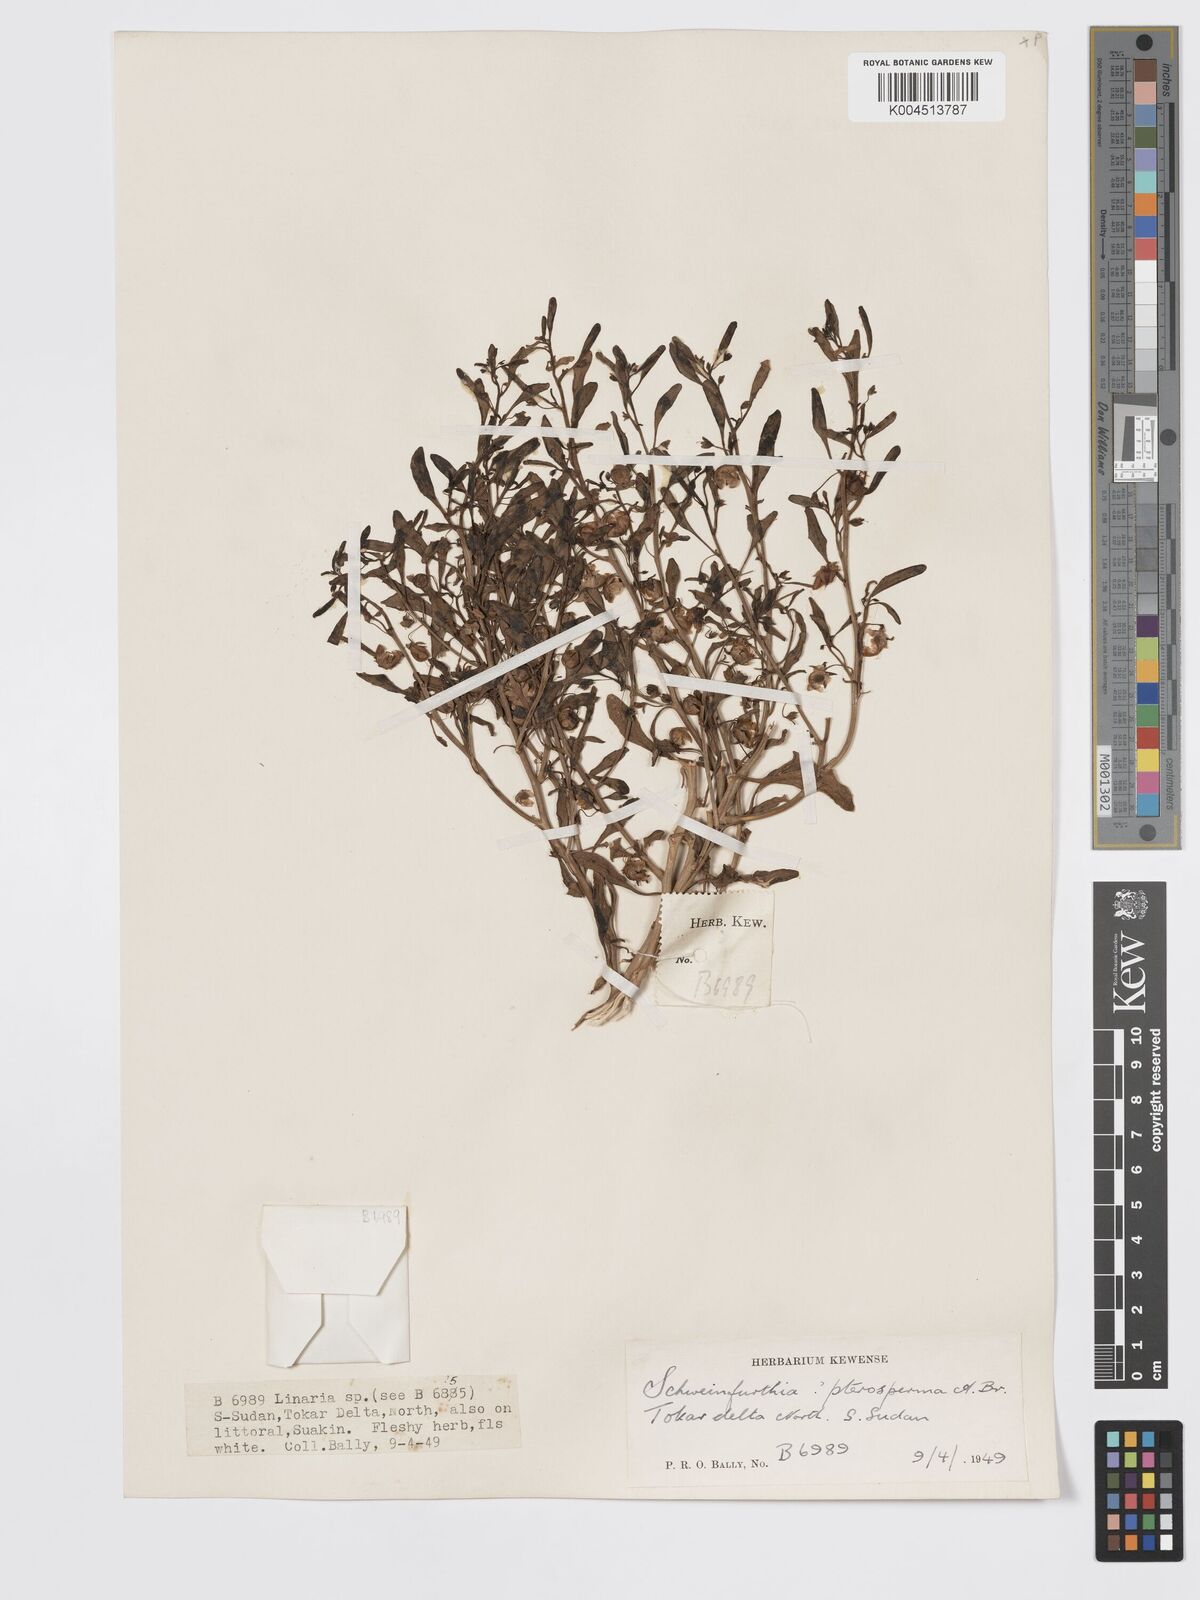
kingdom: Plantae
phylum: Tracheophyta
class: Magnoliopsida
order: Lamiales
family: Plantaginaceae
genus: Schweinfurthia
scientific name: Schweinfurthia pterosperma
